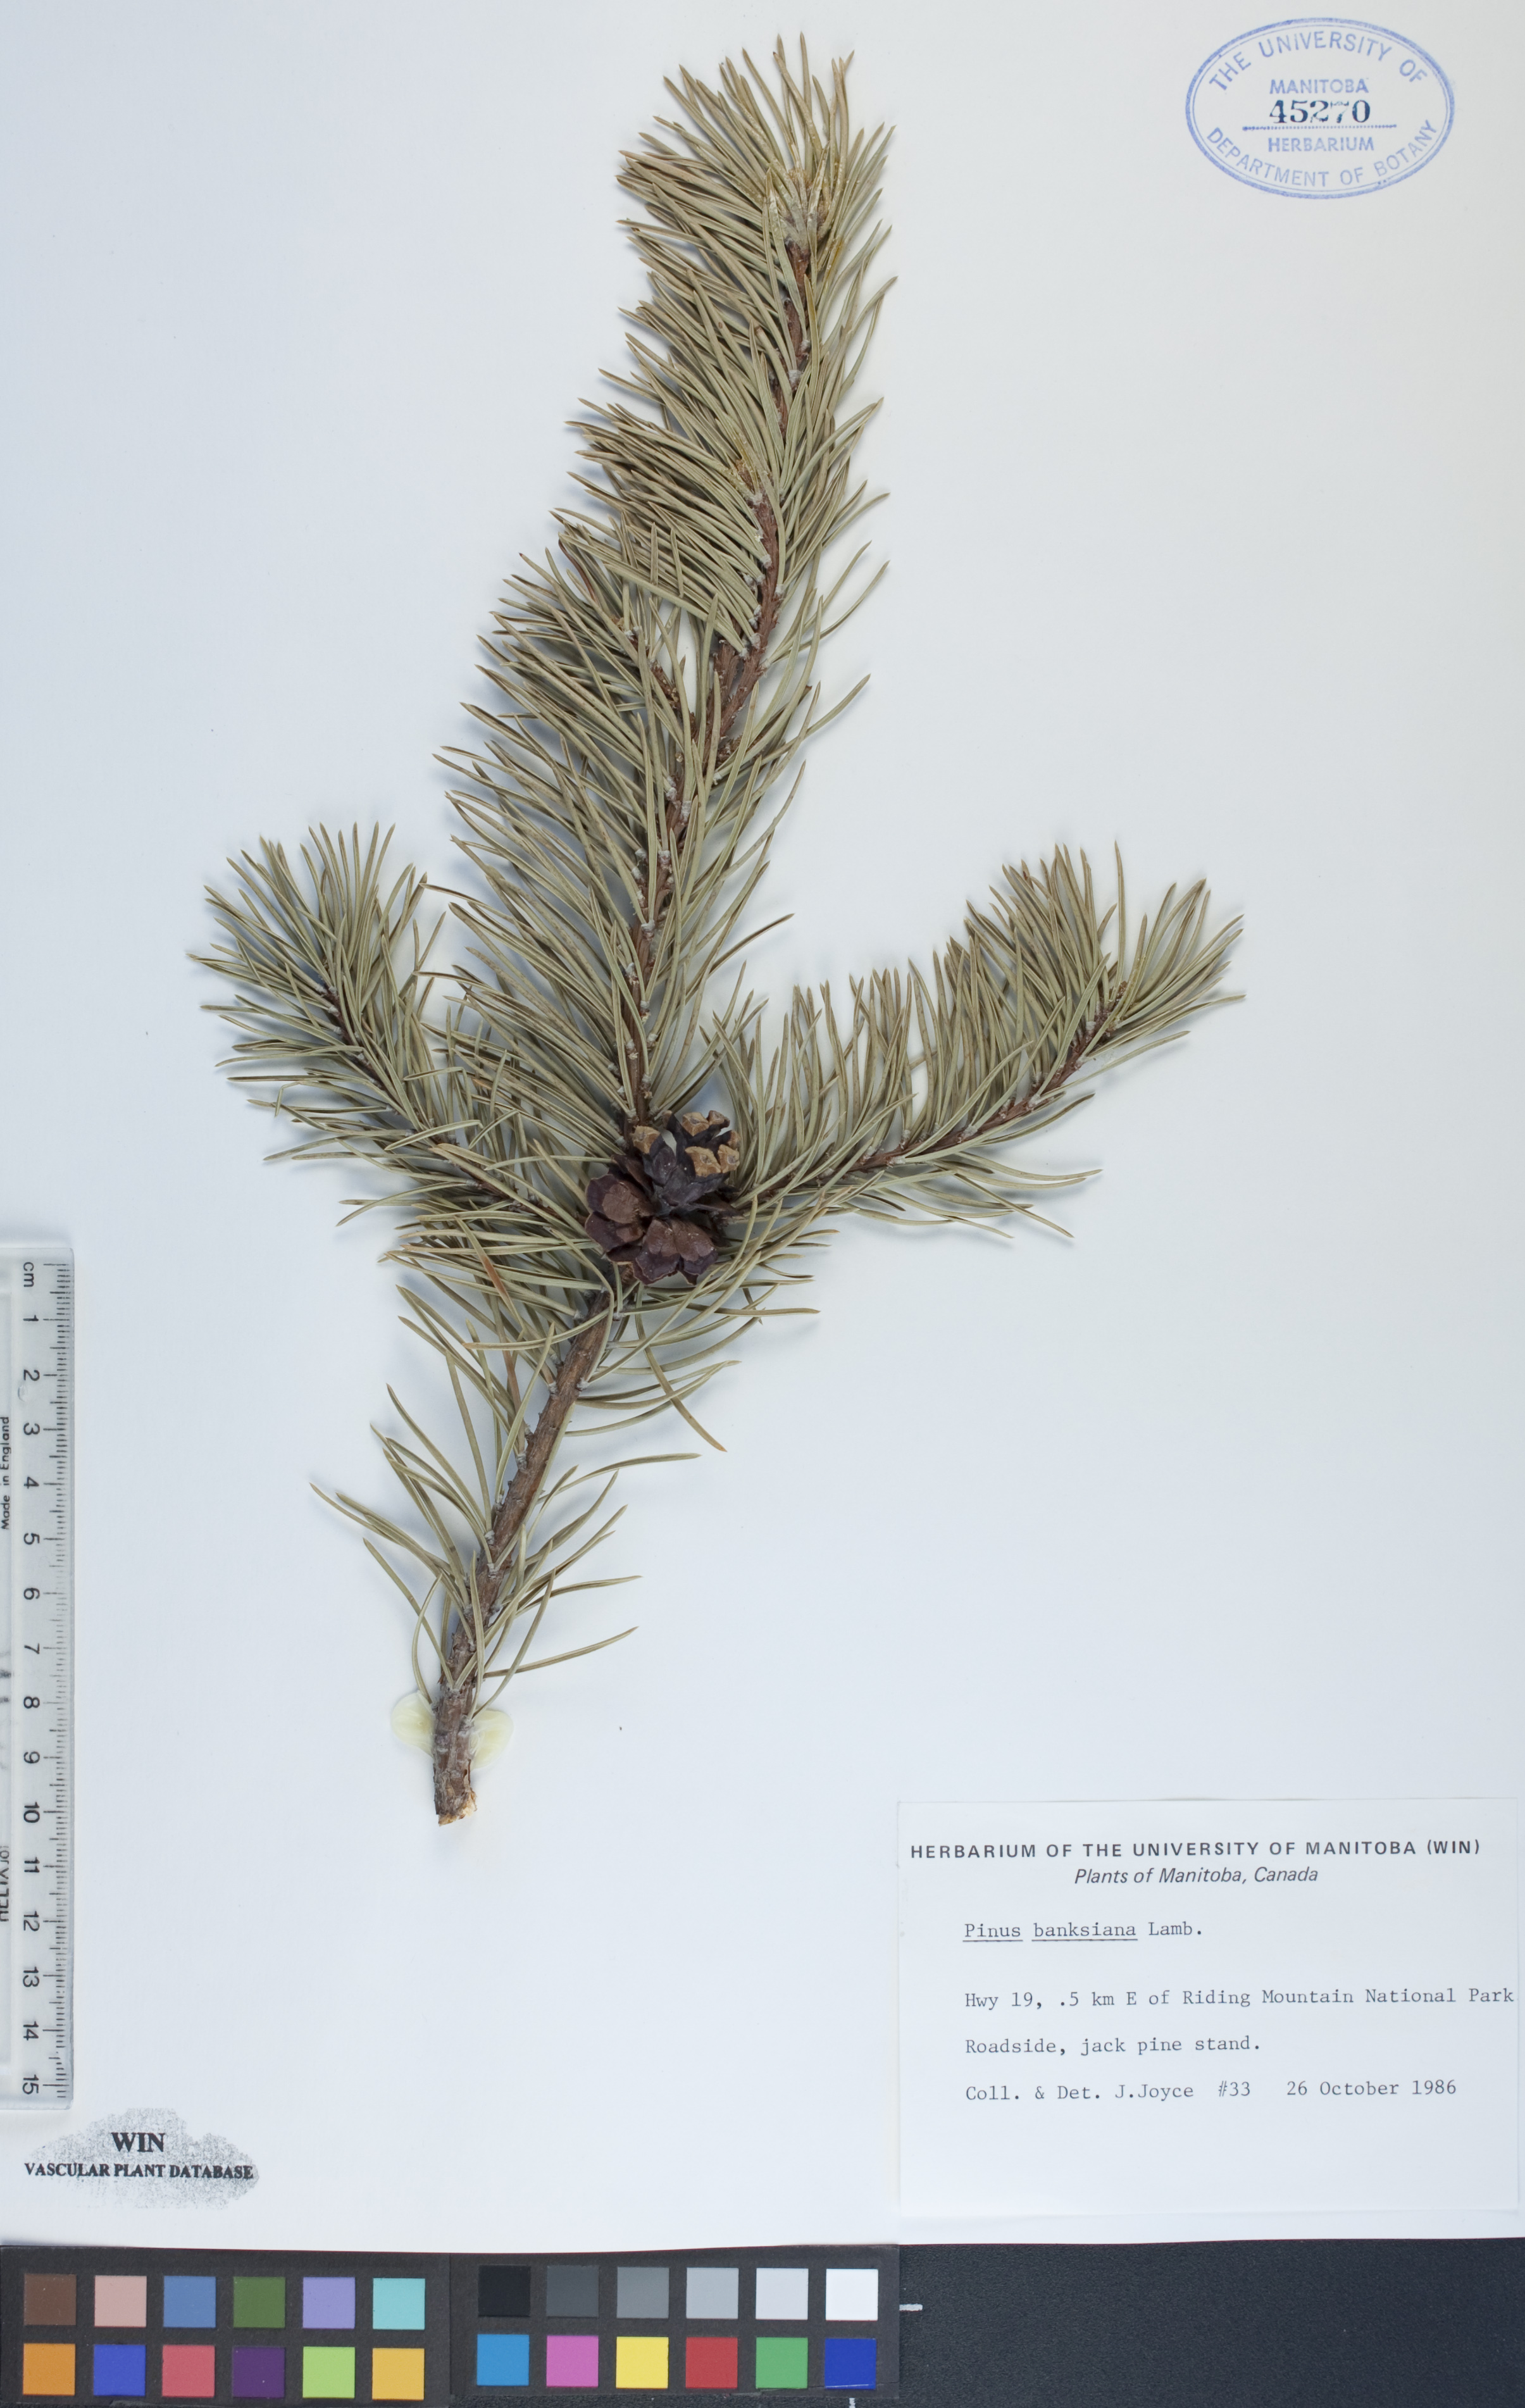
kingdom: Plantae
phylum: Tracheophyta
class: Pinopsida
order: Pinales
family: Pinaceae
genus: Pinus
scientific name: Pinus banksiana
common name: Jack pine
